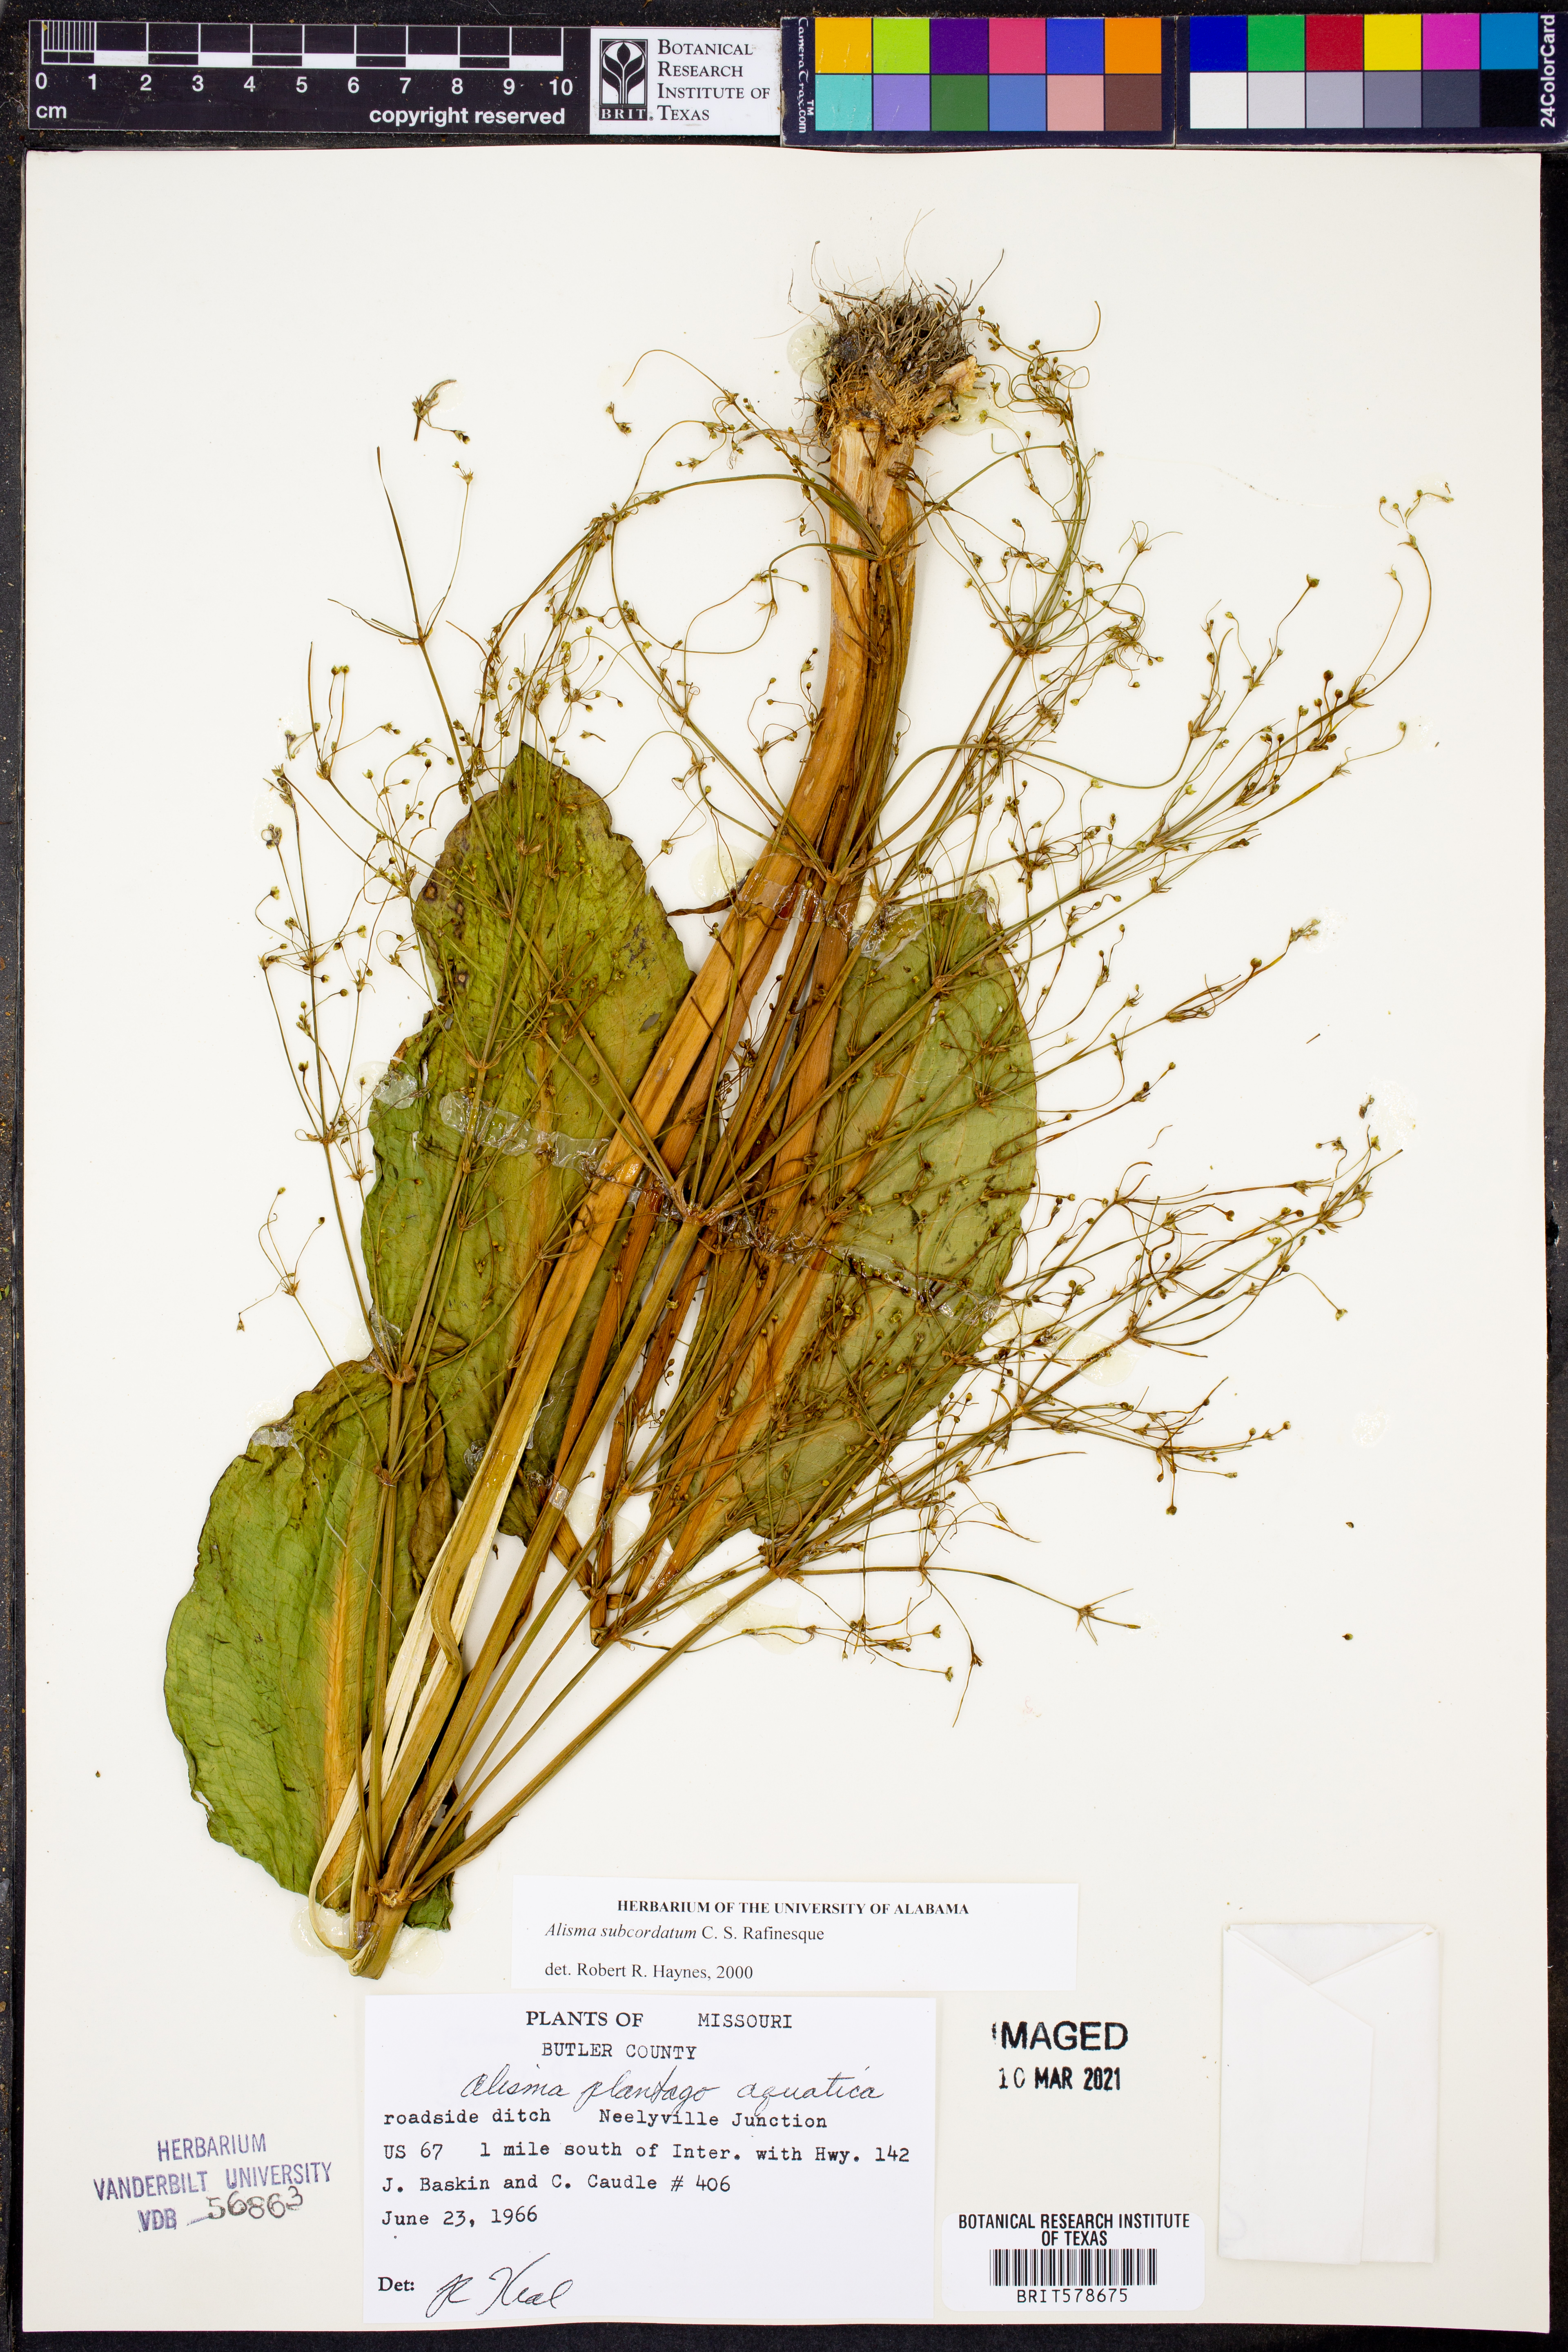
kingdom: Plantae
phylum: Tracheophyta
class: Liliopsida
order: Alismatales
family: Alismataceae
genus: Alisma
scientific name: Alisma subcordatum
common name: Southern water-plantain
